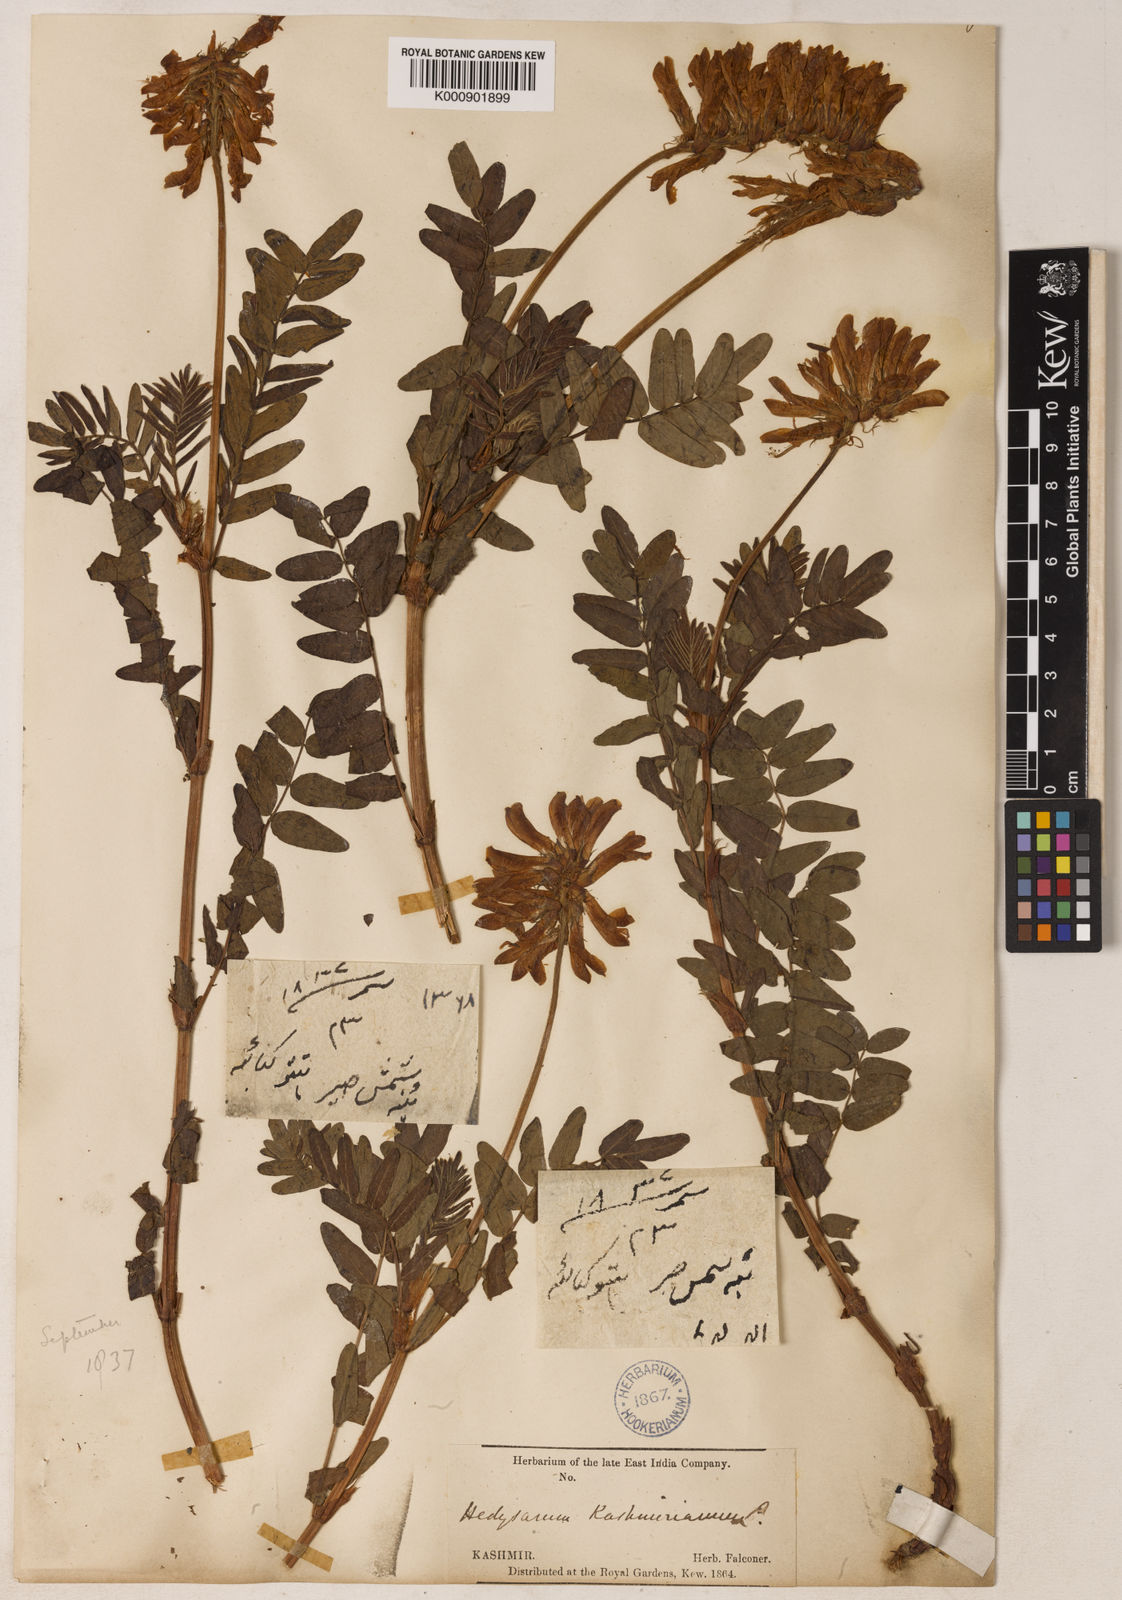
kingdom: Plantae
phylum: Tracheophyta
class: Magnoliopsida
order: Fabales
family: Fabaceae
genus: Hedysarum
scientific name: Hedysarum cachemirianum
